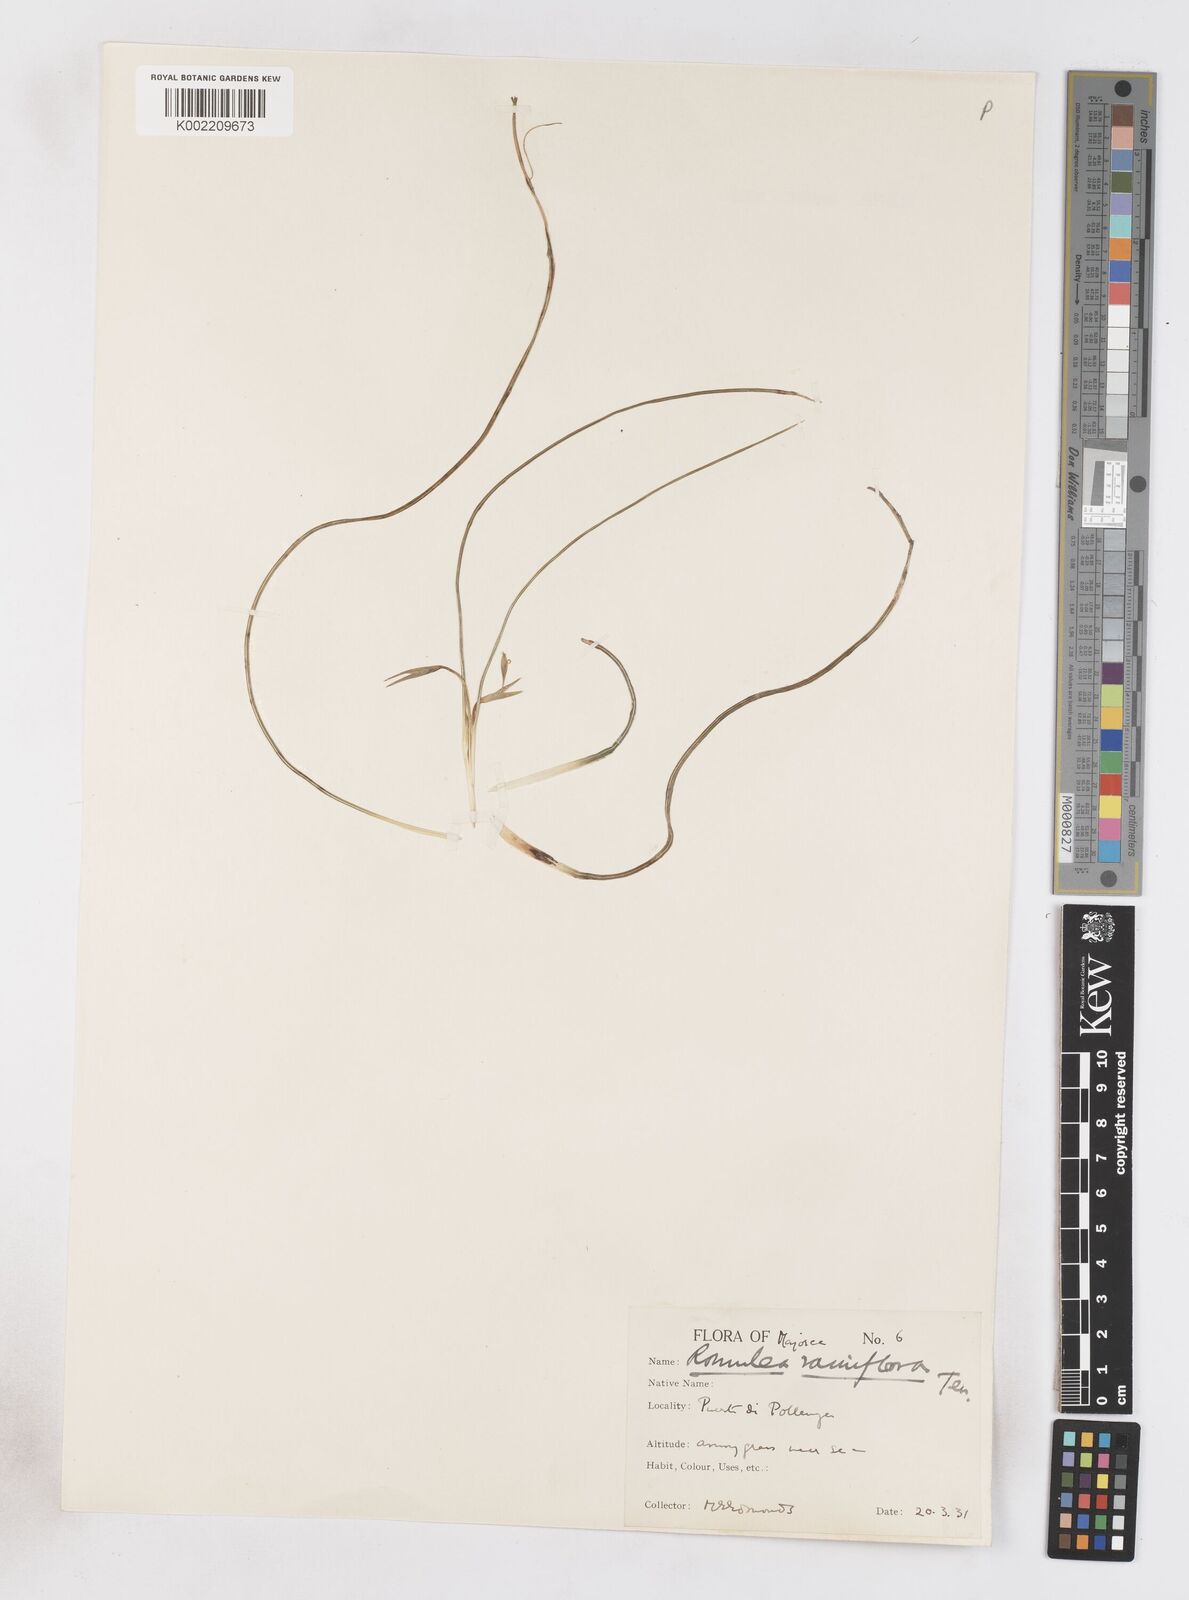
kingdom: Plantae
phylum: Tracheophyta
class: Liliopsida
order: Asparagales
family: Iridaceae
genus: Romulea
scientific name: Romulea ramiflora
